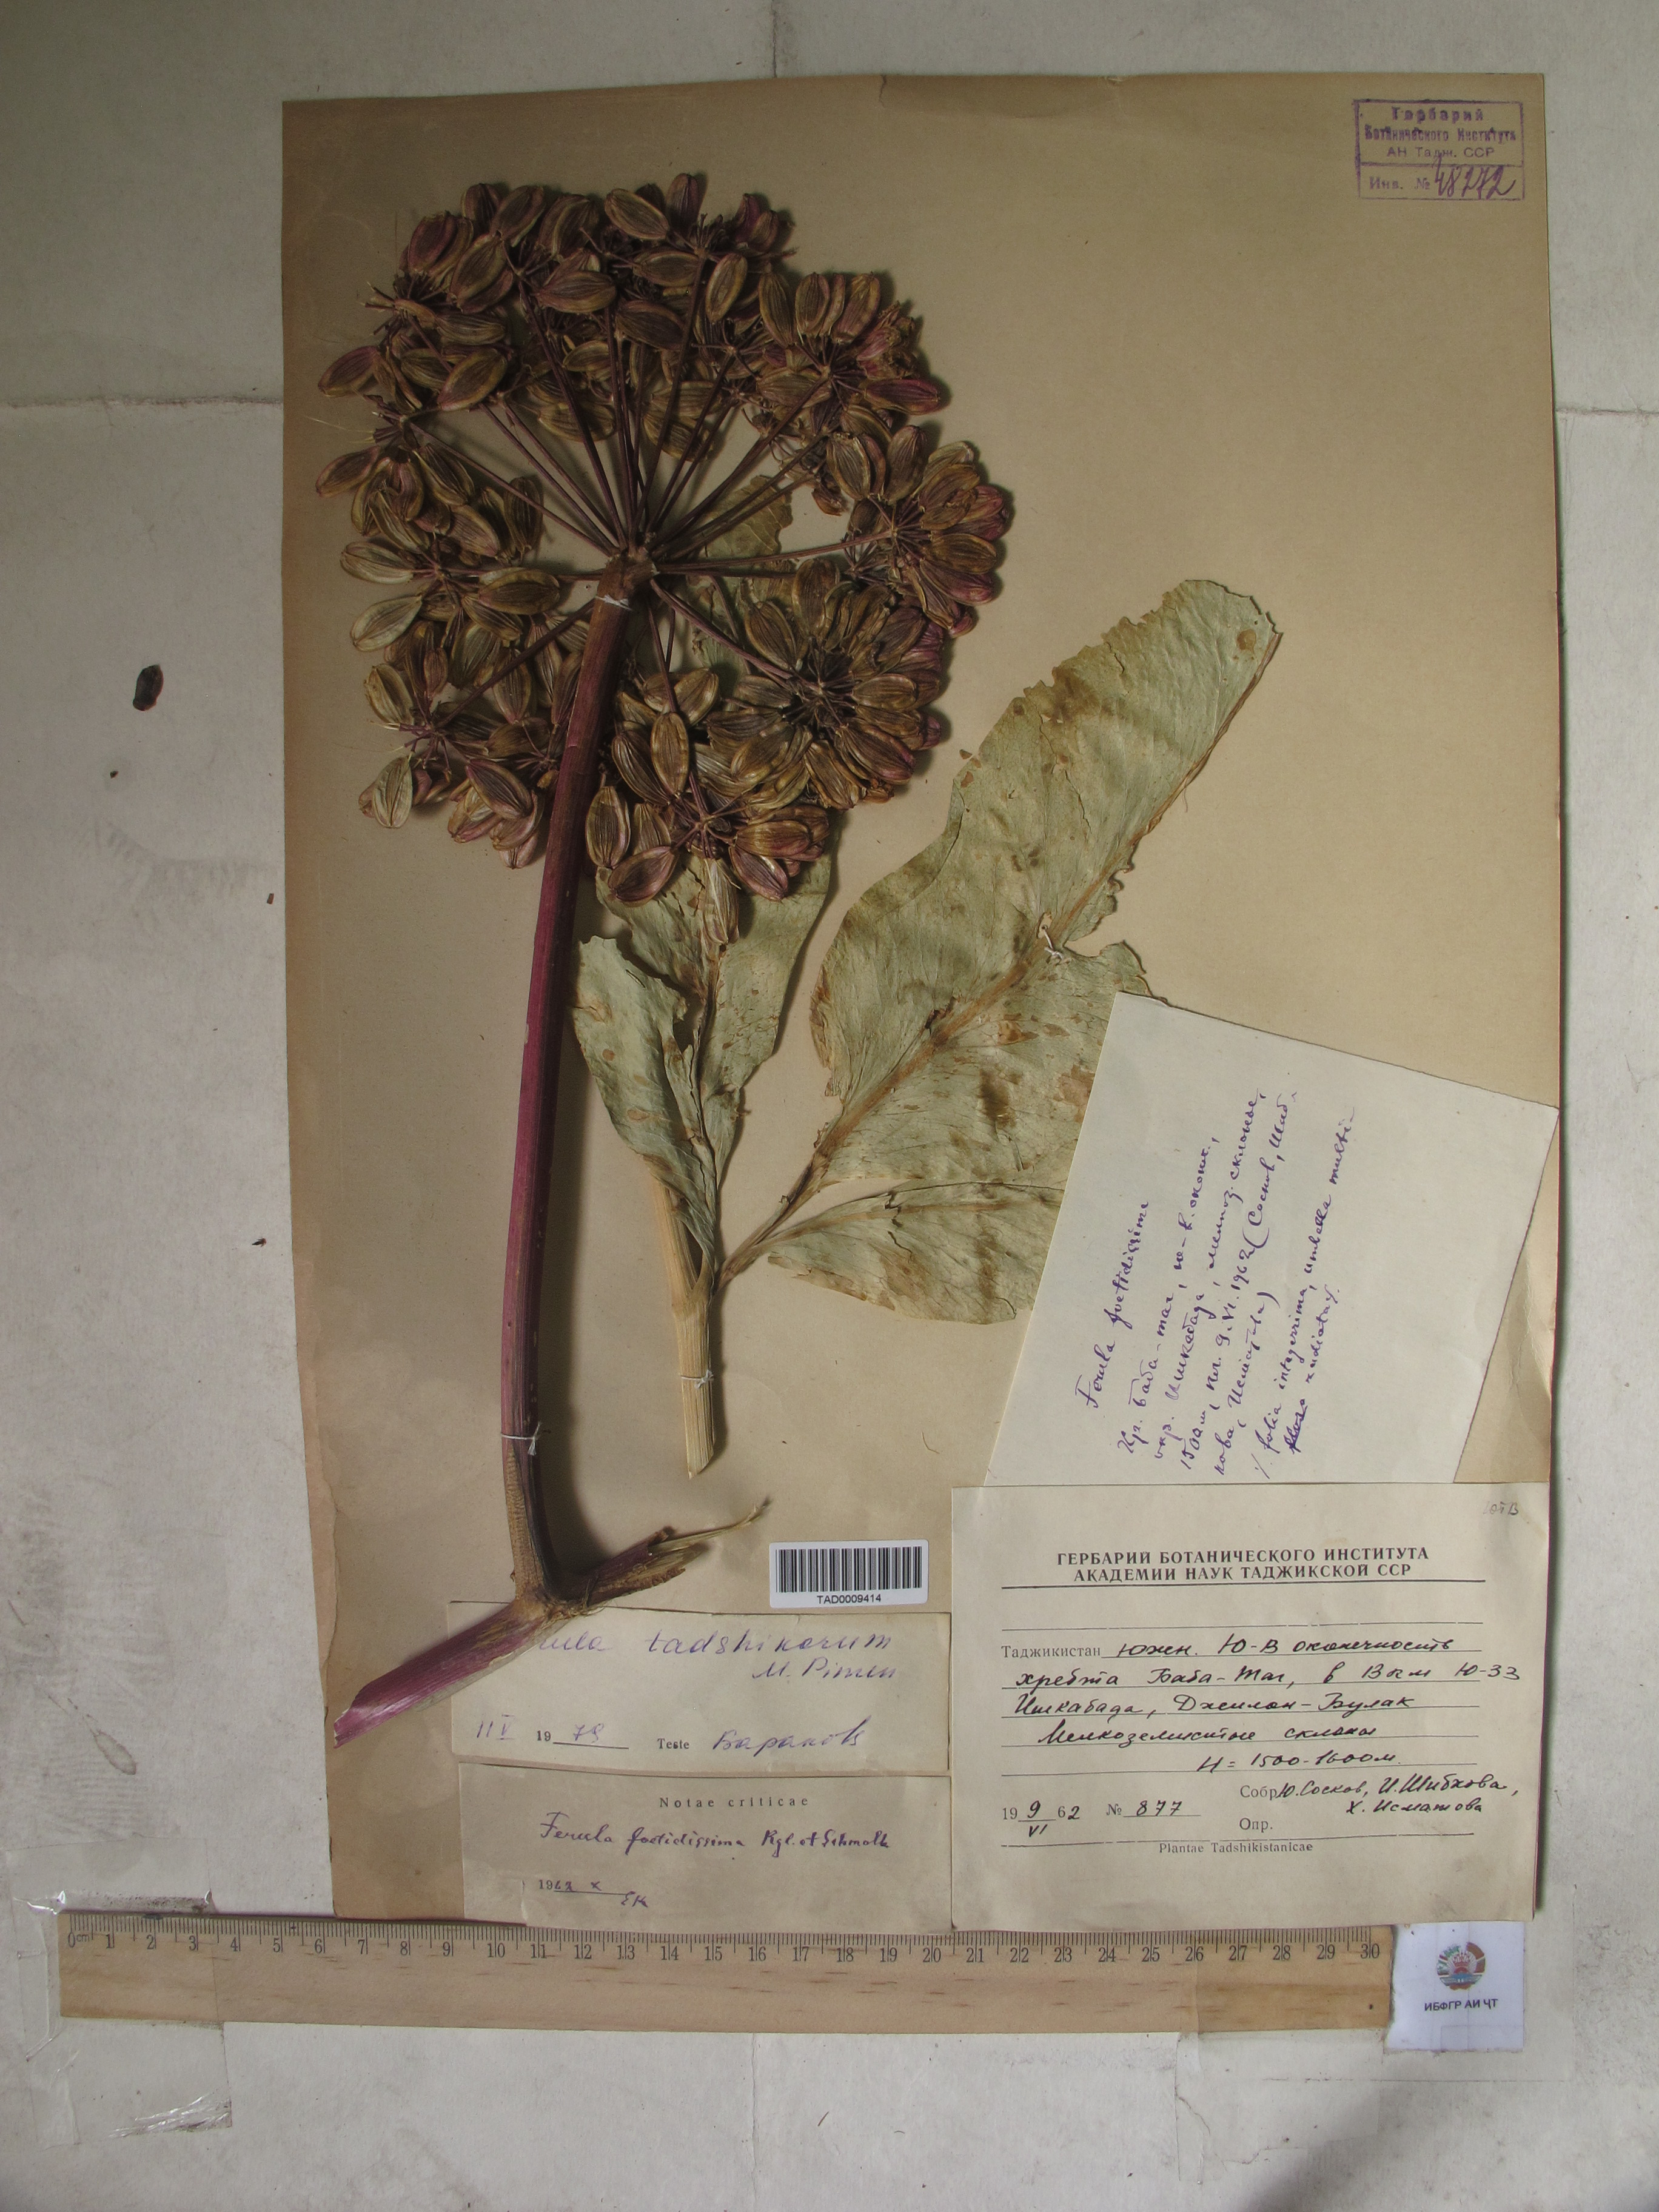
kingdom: Plantae
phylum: Tracheophyta
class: Magnoliopsida
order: Apiales
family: Apiaceae
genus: Ferula
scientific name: Ferula tadshikorum
